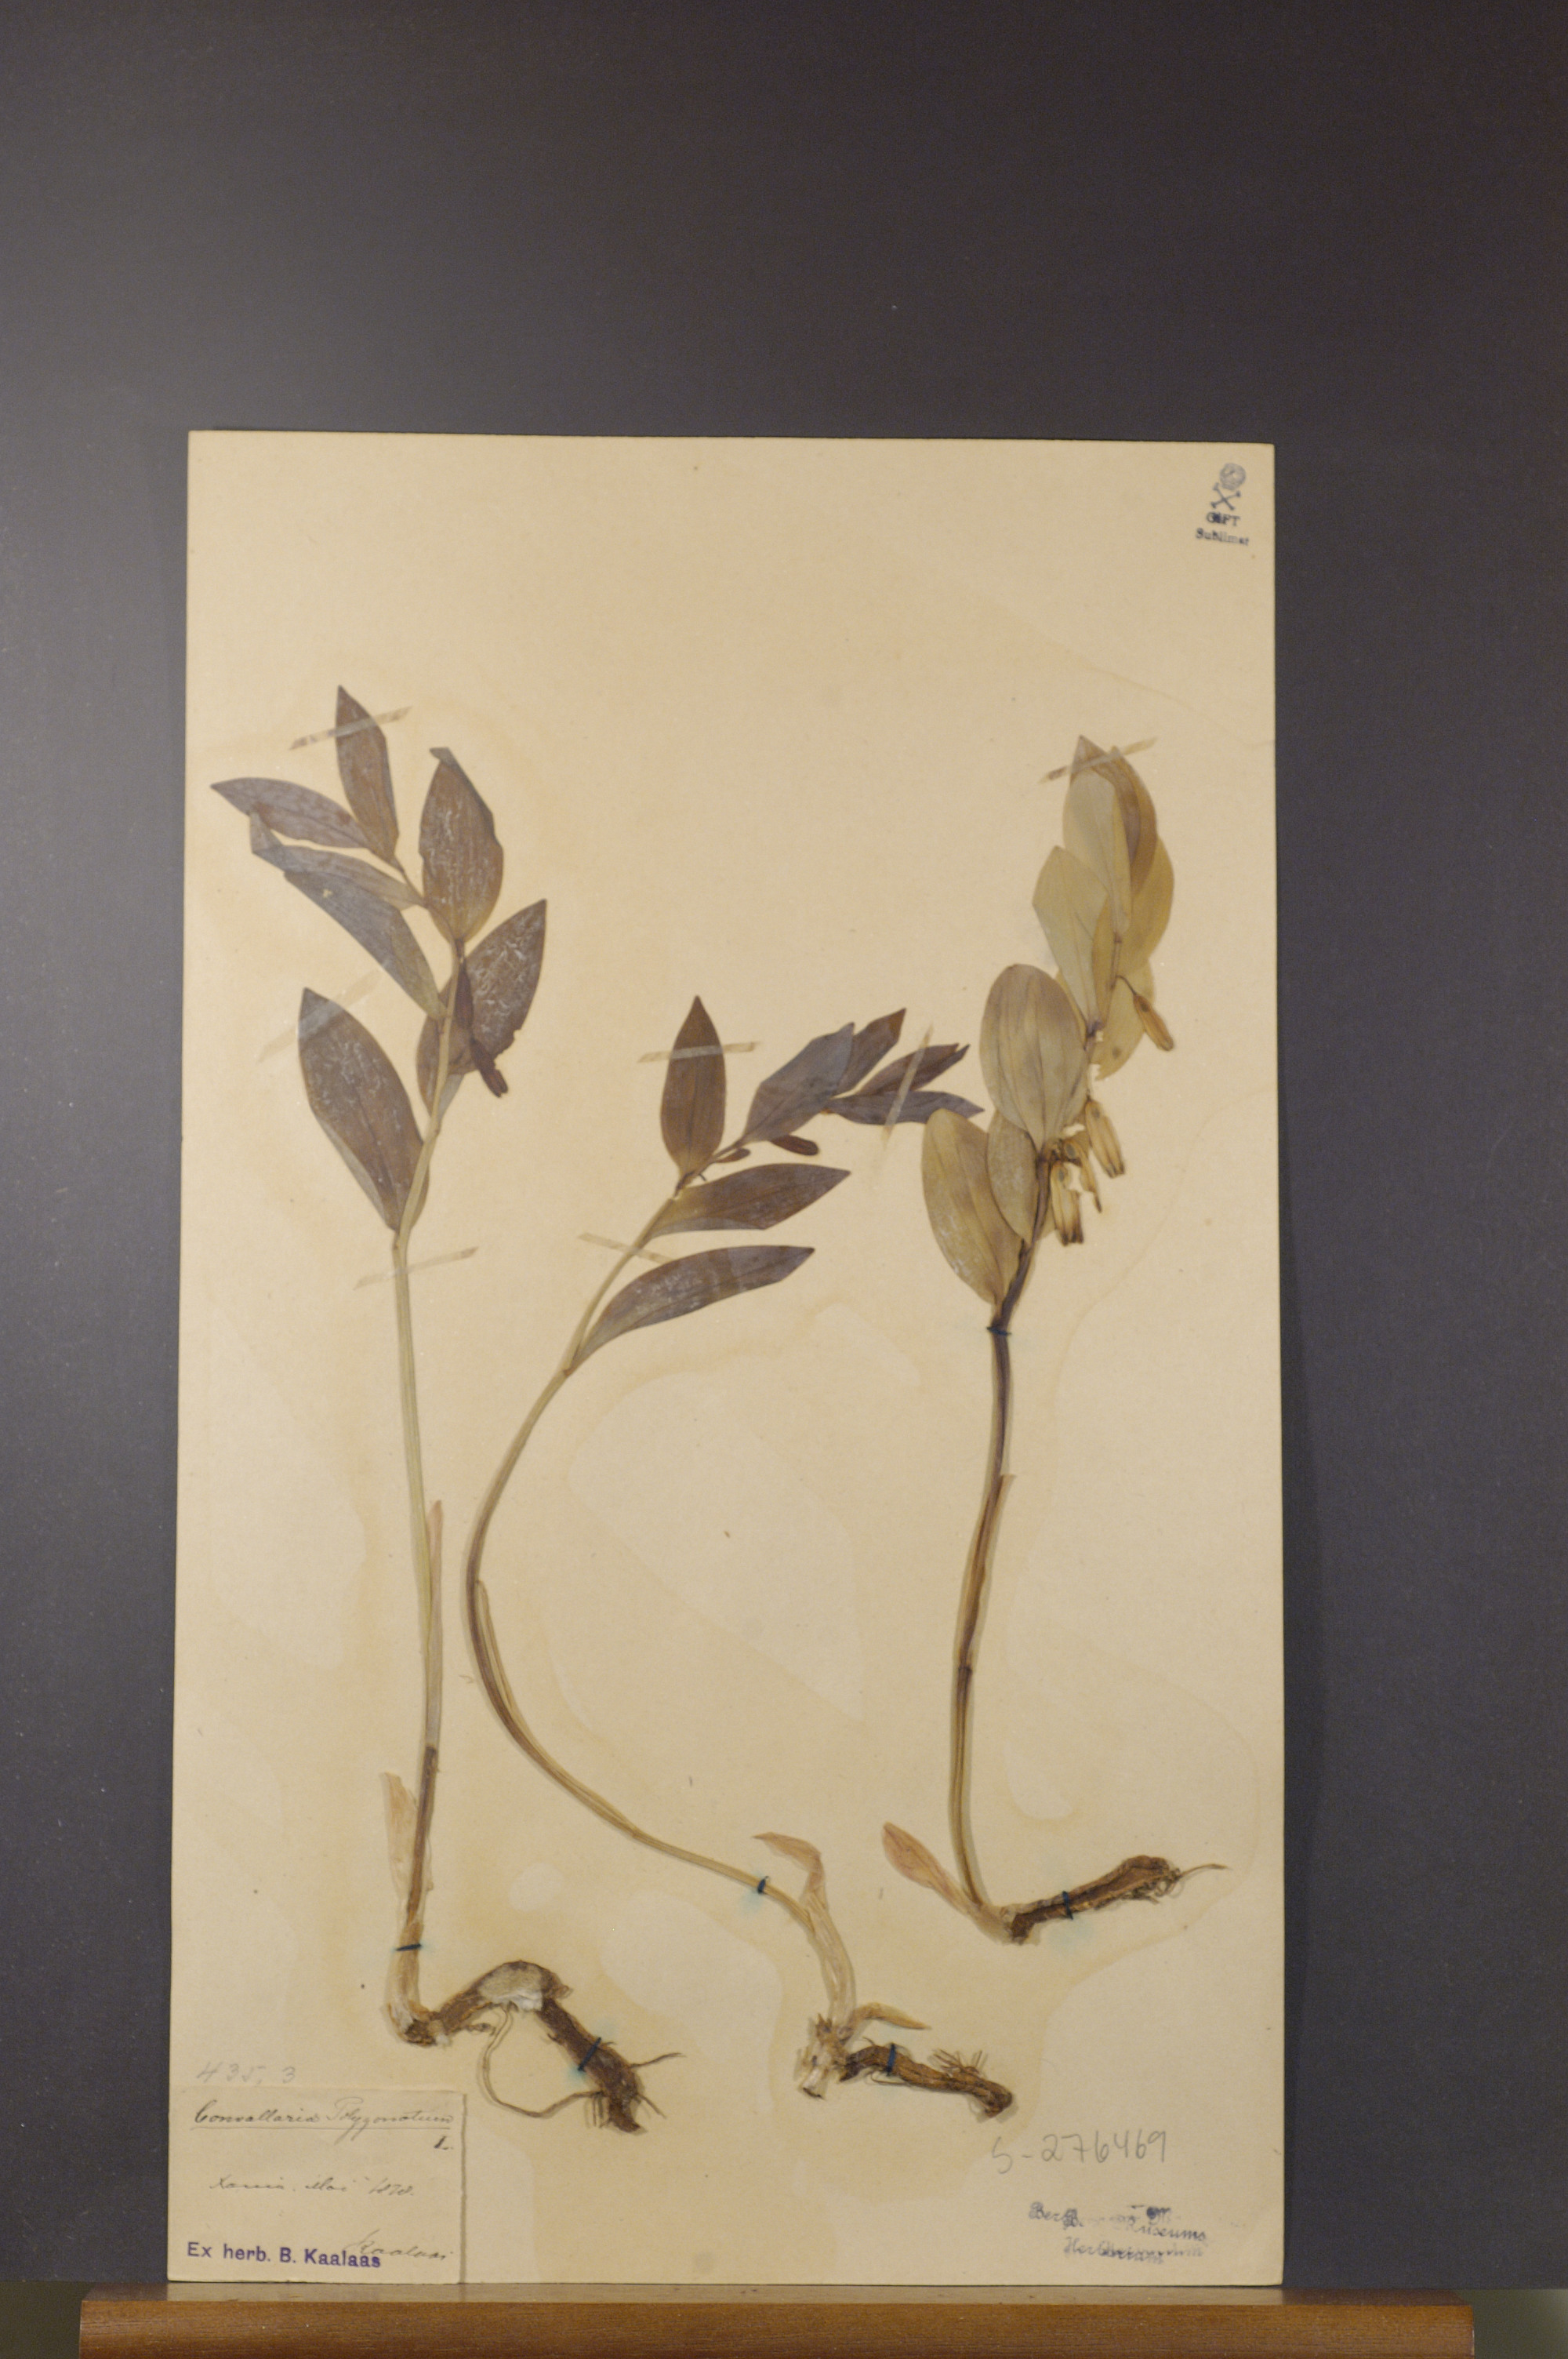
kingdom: Plantae
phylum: Tracheophyta
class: Liliopsida
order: Asparagales
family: Asparagaceae
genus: Polygonatum
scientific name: Polygonatum odoratum
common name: Angular solomon's-seal
